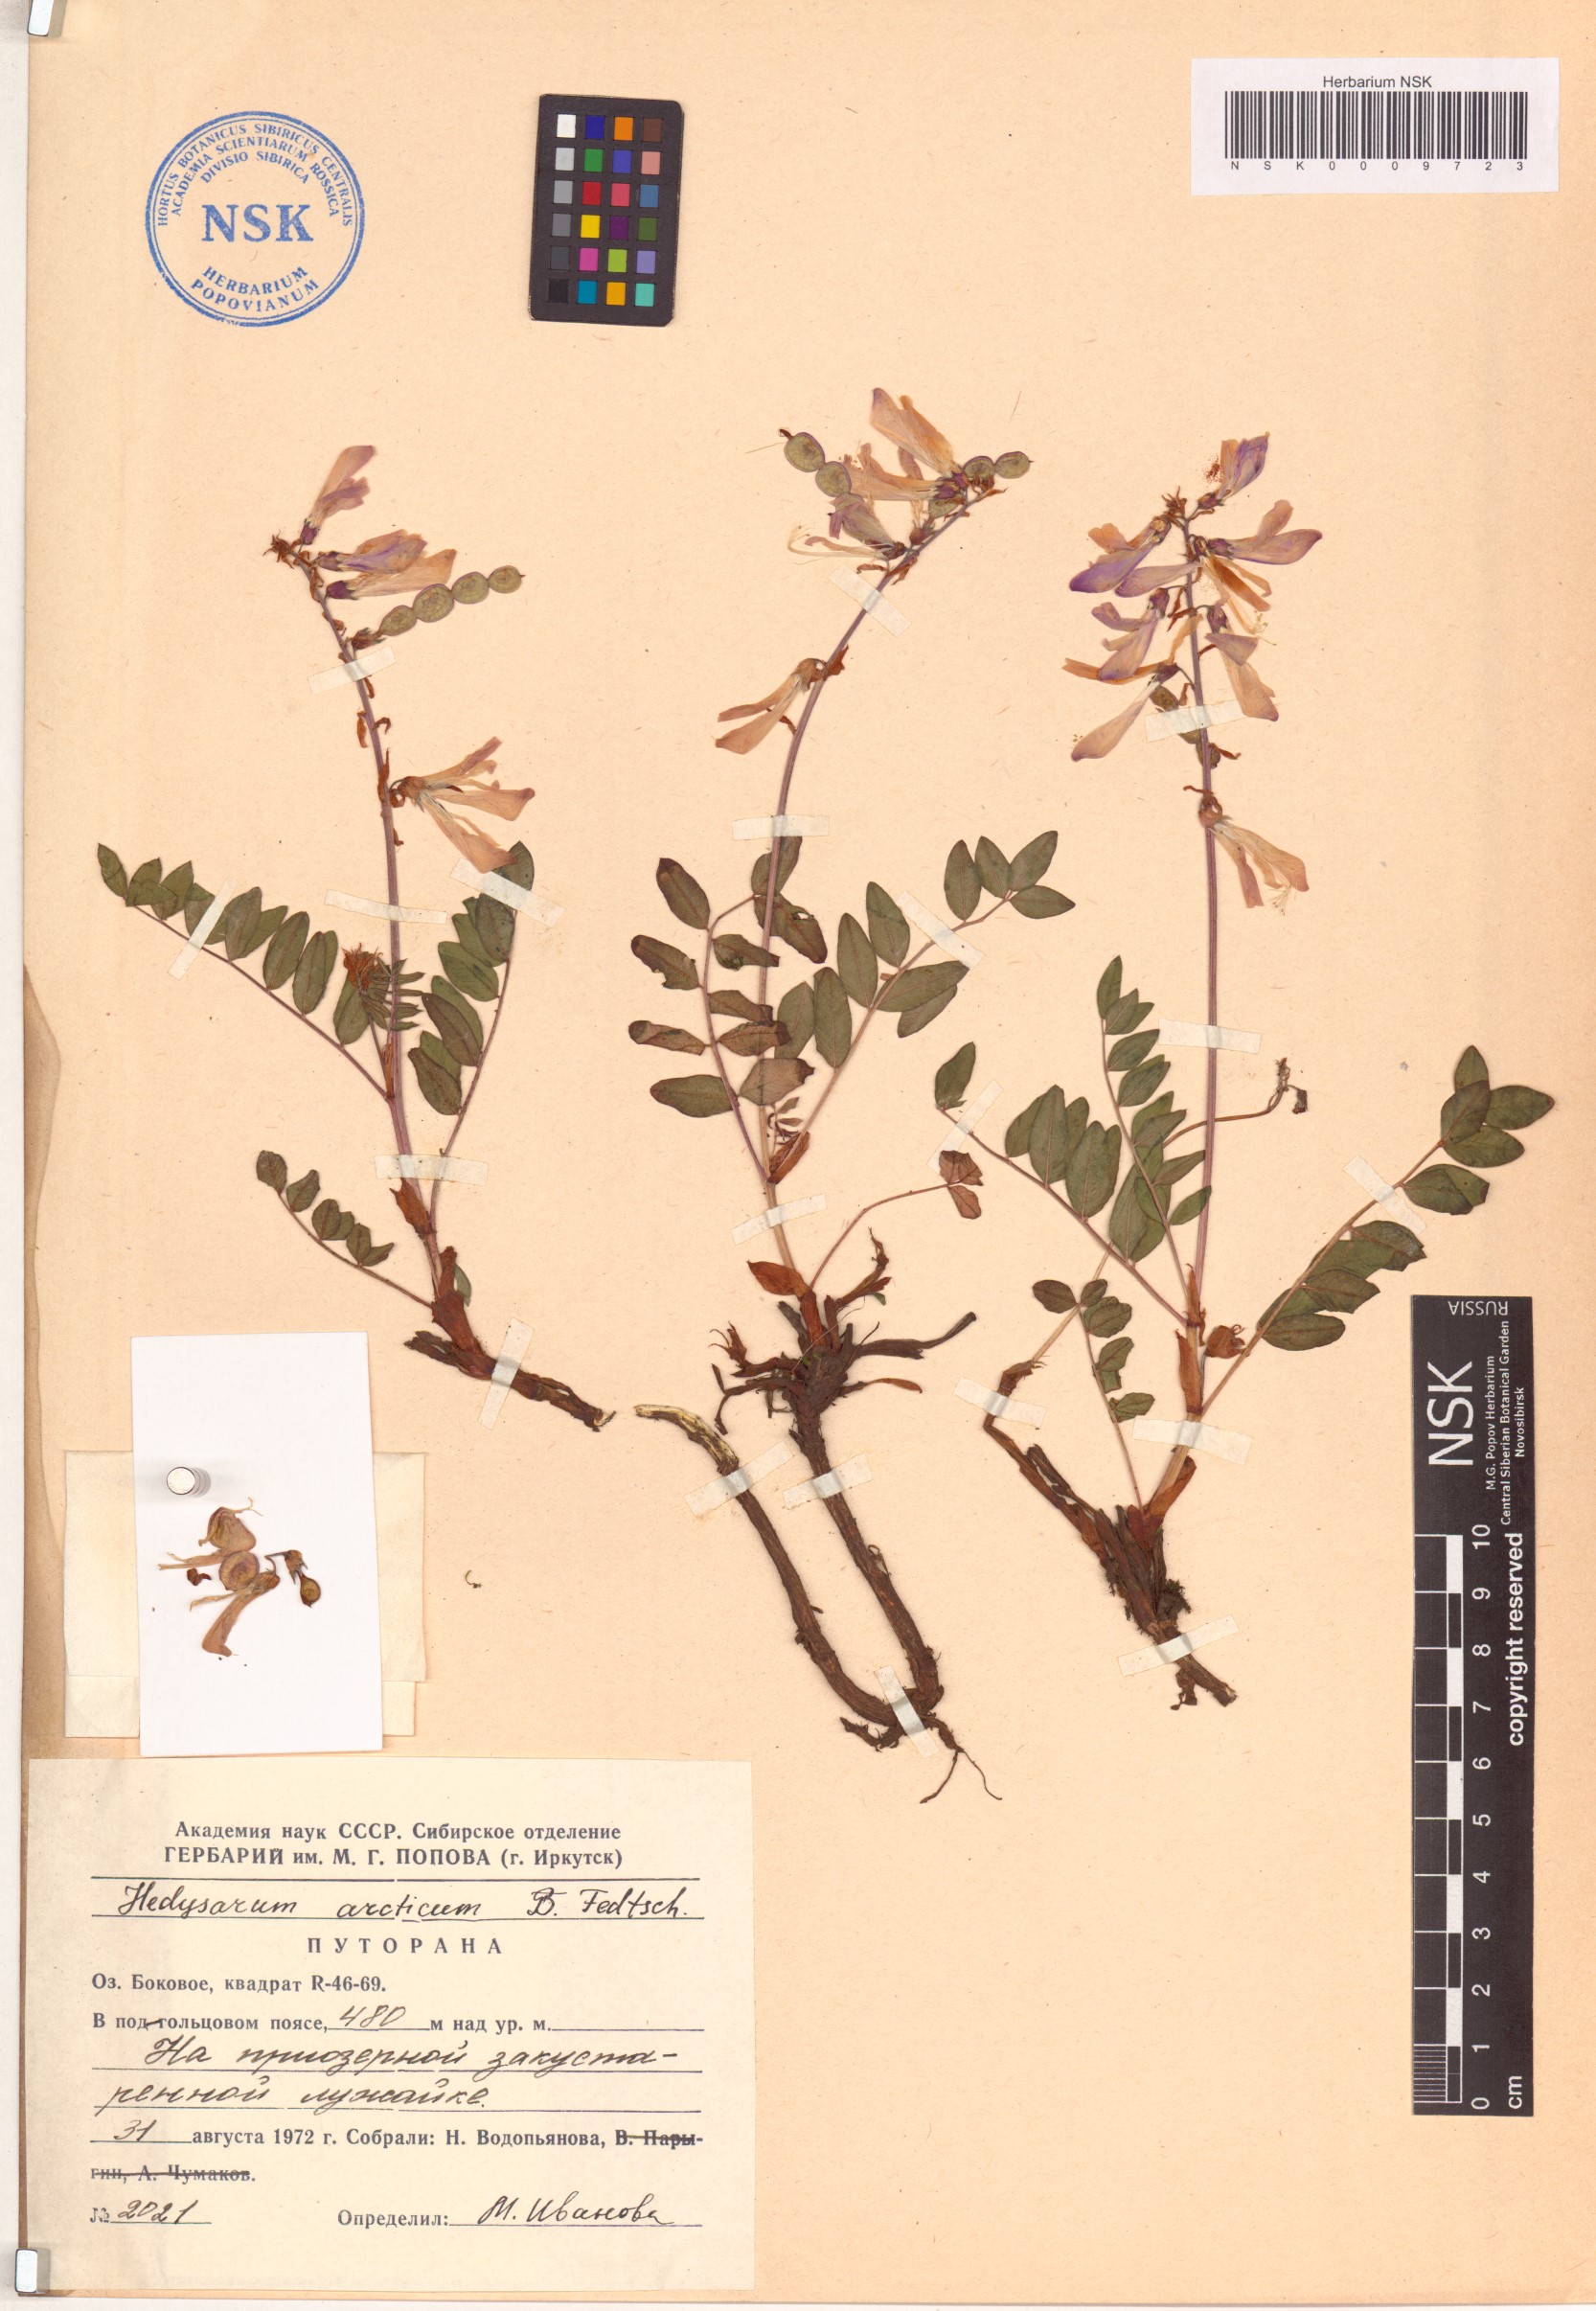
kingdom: Plantae
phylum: Tracheophyta
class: Magnoliopsida
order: Fabales
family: Fabaceae
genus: Hedysarum
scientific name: Hedysarum hedysaroides
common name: Alpine french-honeysuckle
